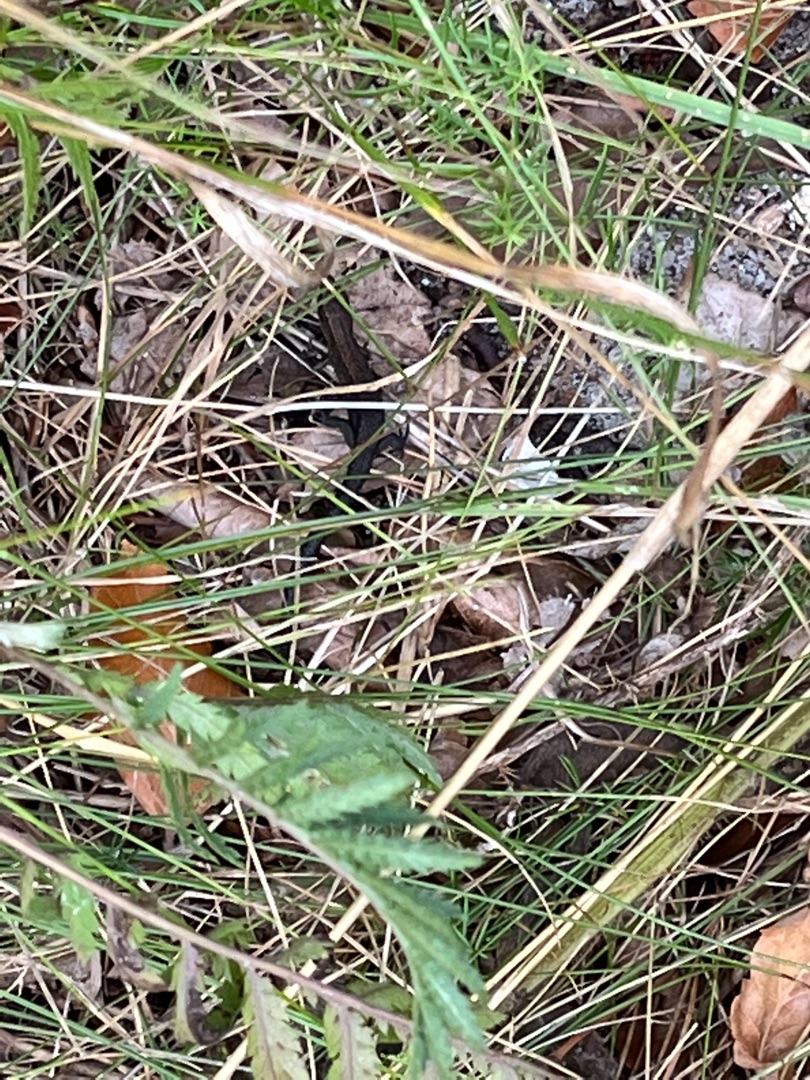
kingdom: Animalia
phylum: Chordata
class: Squamata
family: Lacertidae
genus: Zootoca
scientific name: Zootoca vivipara
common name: Skovfirben
